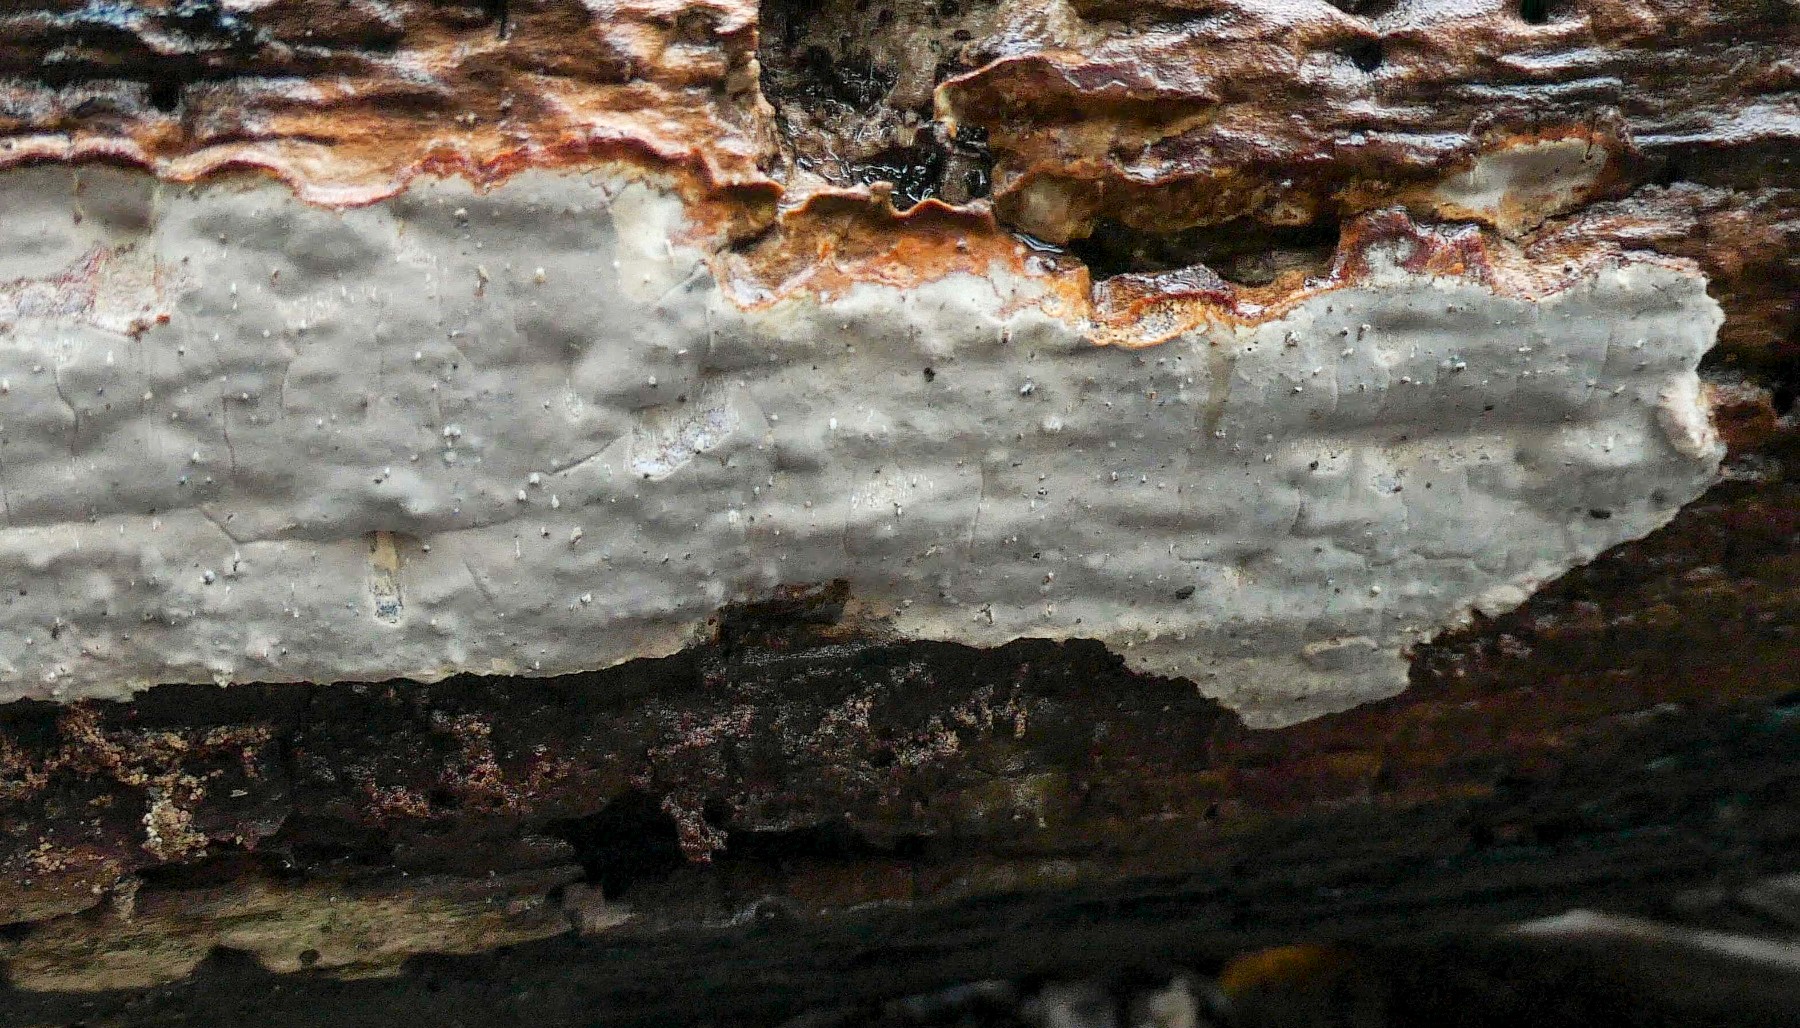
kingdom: Fungi
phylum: Basidiomycota
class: Agaricomycetes
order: Russulales
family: Peniophoraceae
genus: Scytinostroma
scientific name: Scytinostroma hemidichophyticum
